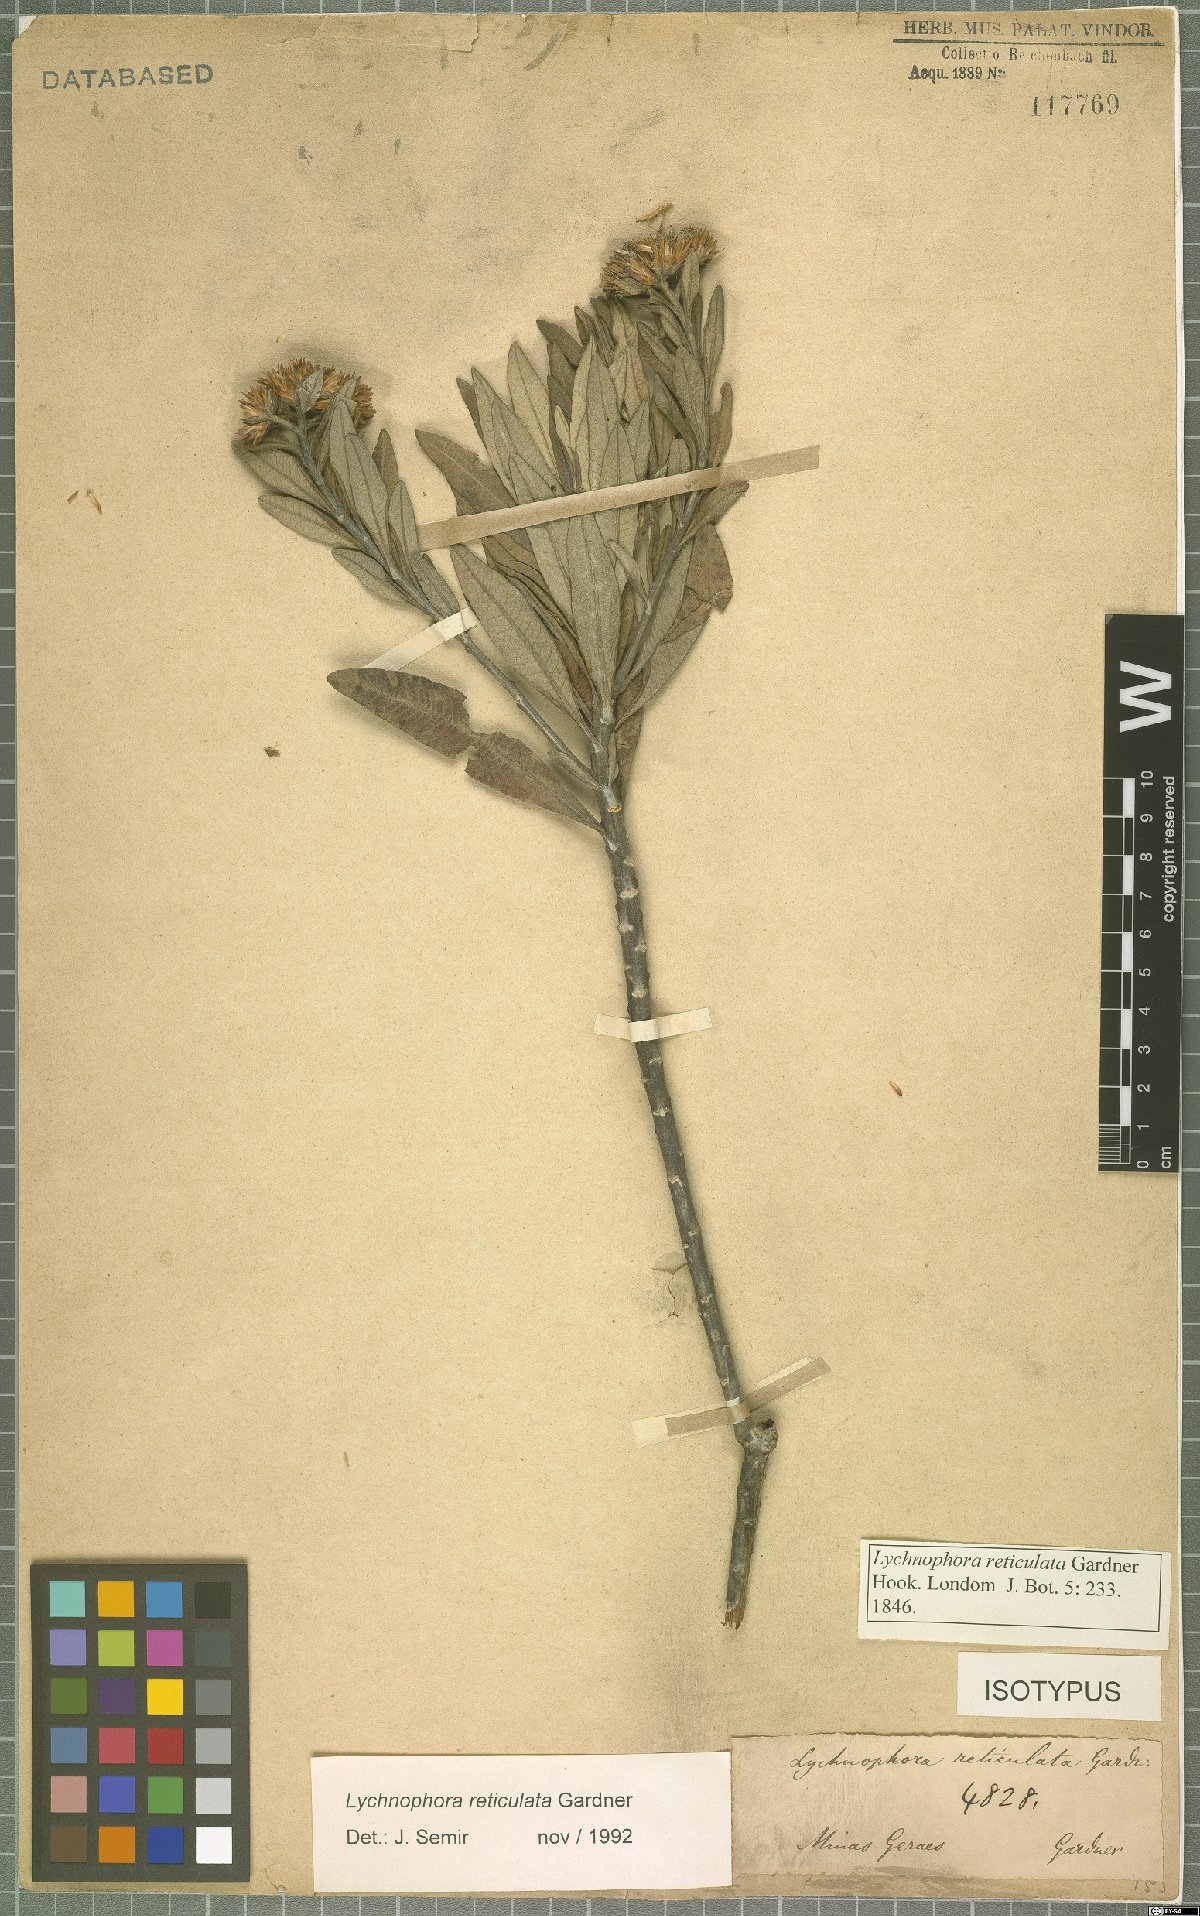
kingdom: Plantae
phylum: Tracheophyta
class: Magnoliopsida
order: Asterales
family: Asteraceae
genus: Eremanthus
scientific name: Eremanthus reticulatus
